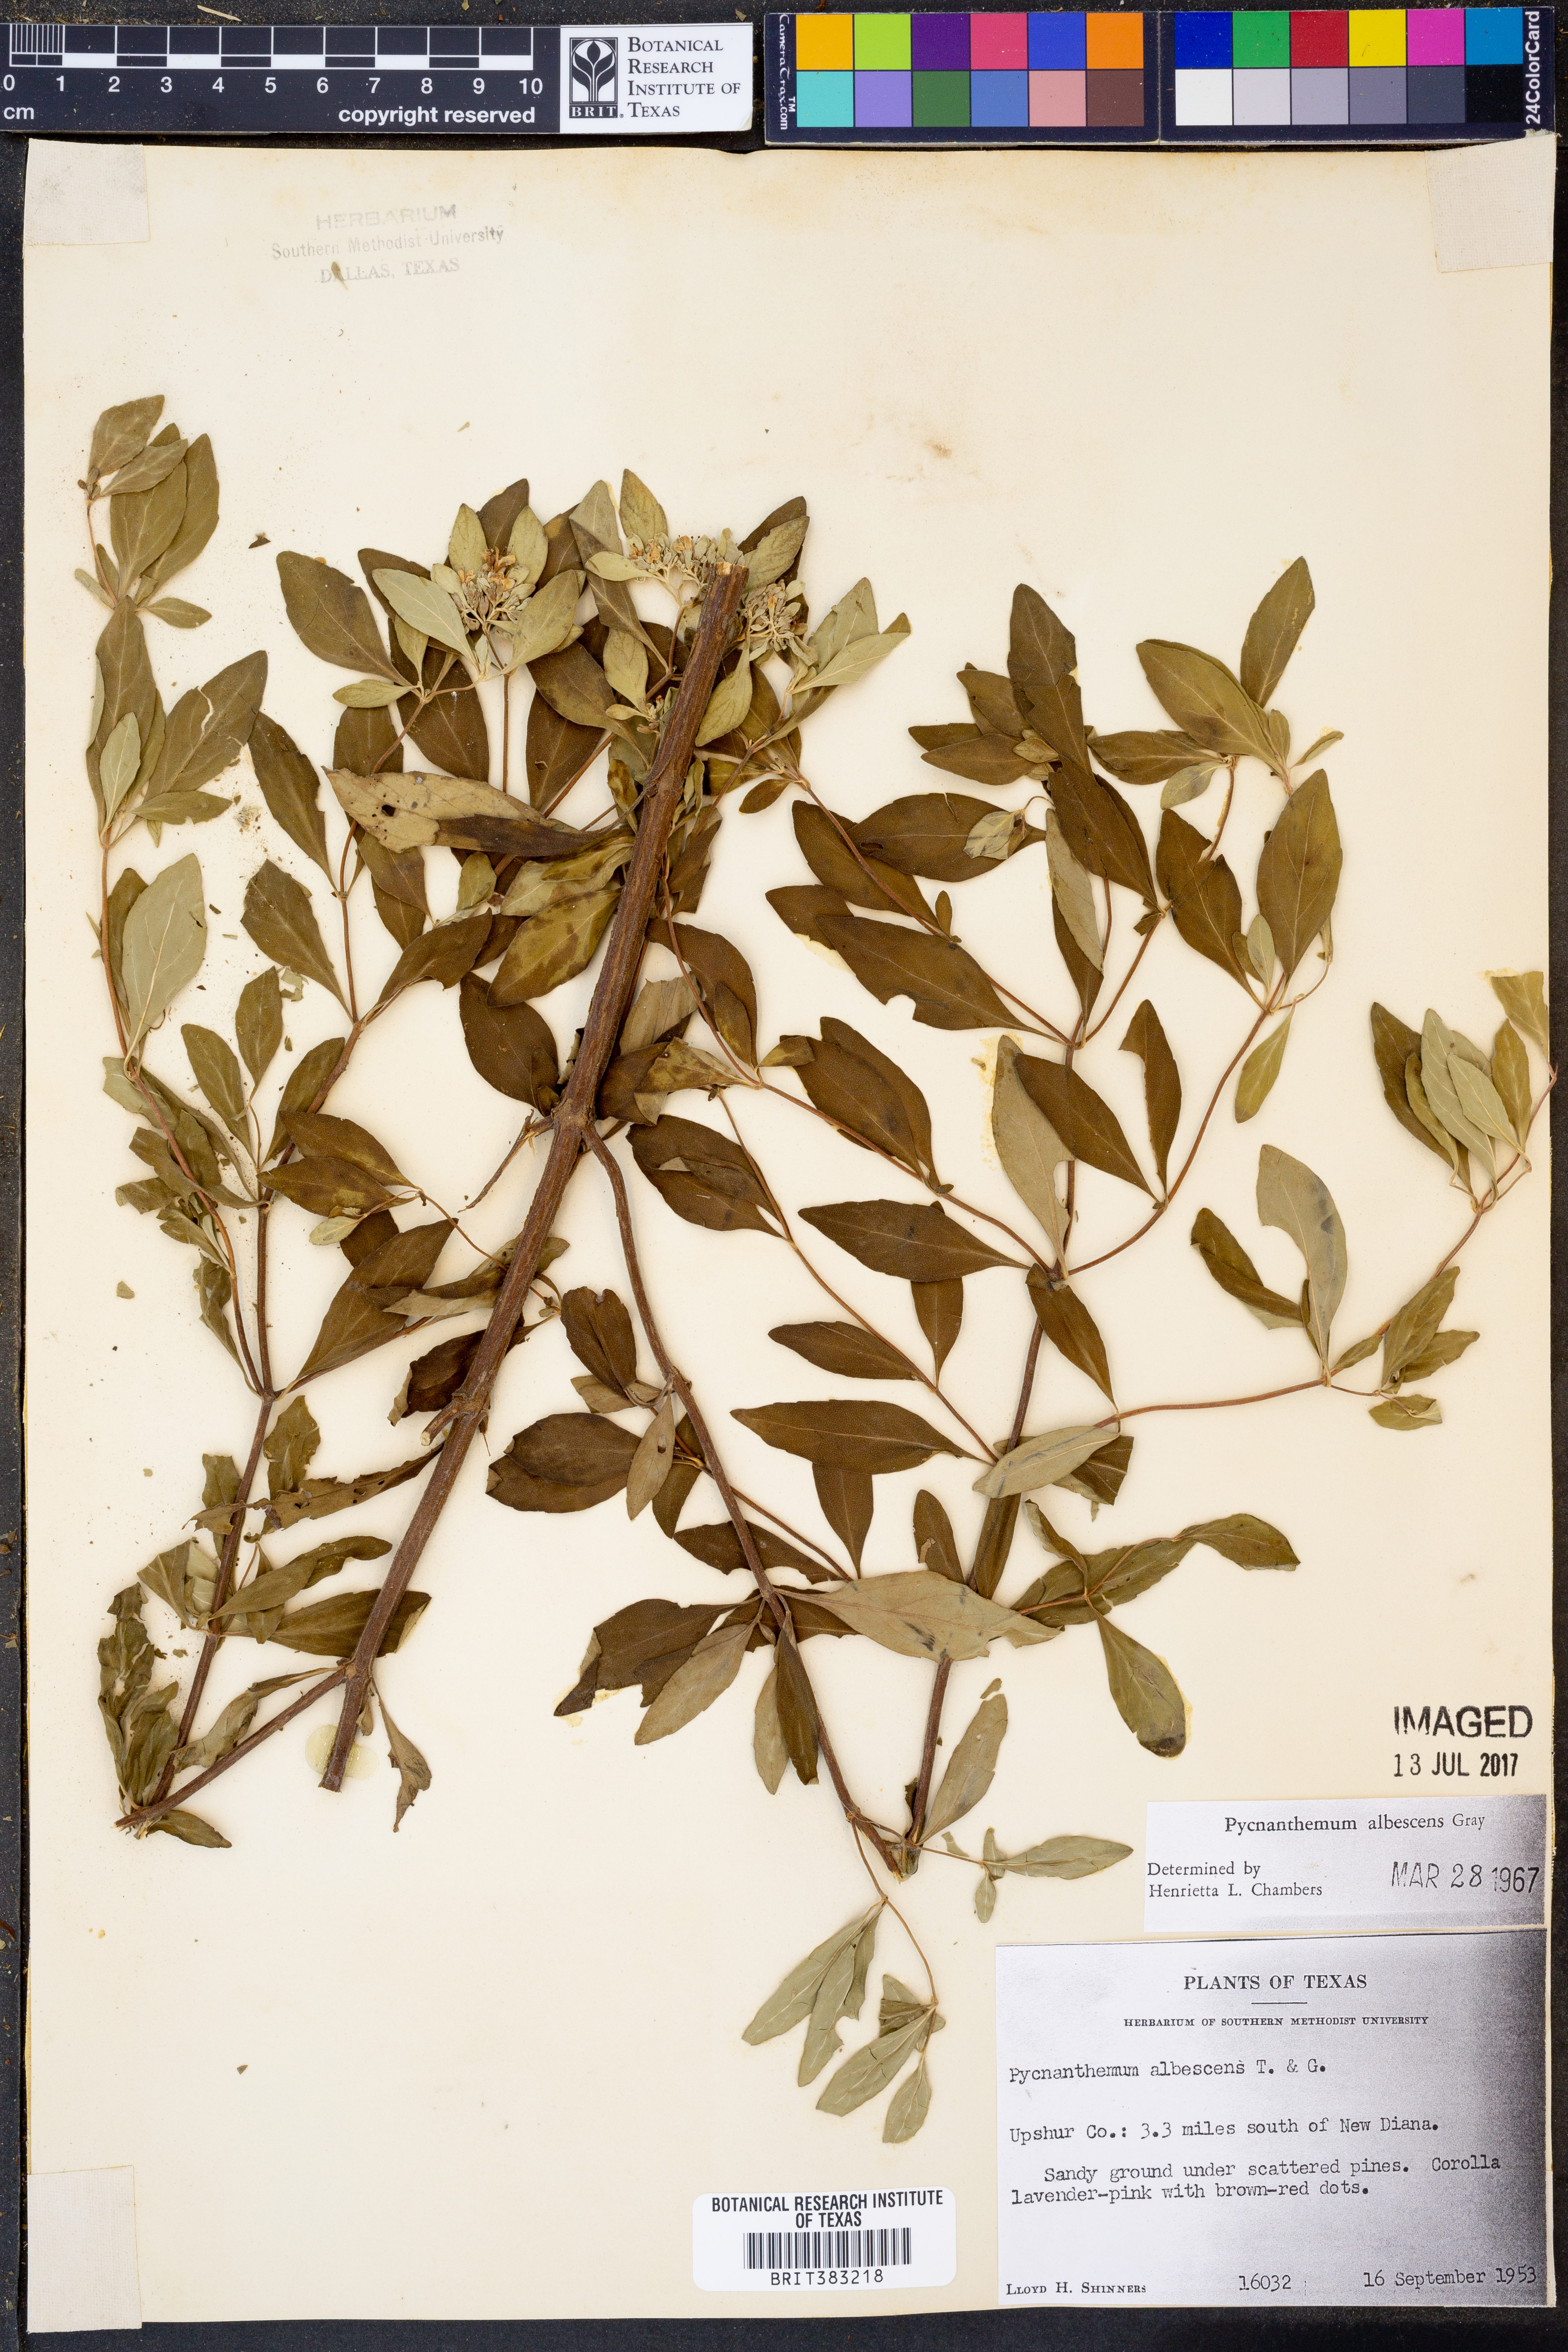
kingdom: Plantae
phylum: Tracheophyta
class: Magnoliopsida
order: Lamiales
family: Lamiaceae
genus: Pycnanthemum
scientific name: Pycnanthemum albescens
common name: White-leaf mountain-mint
